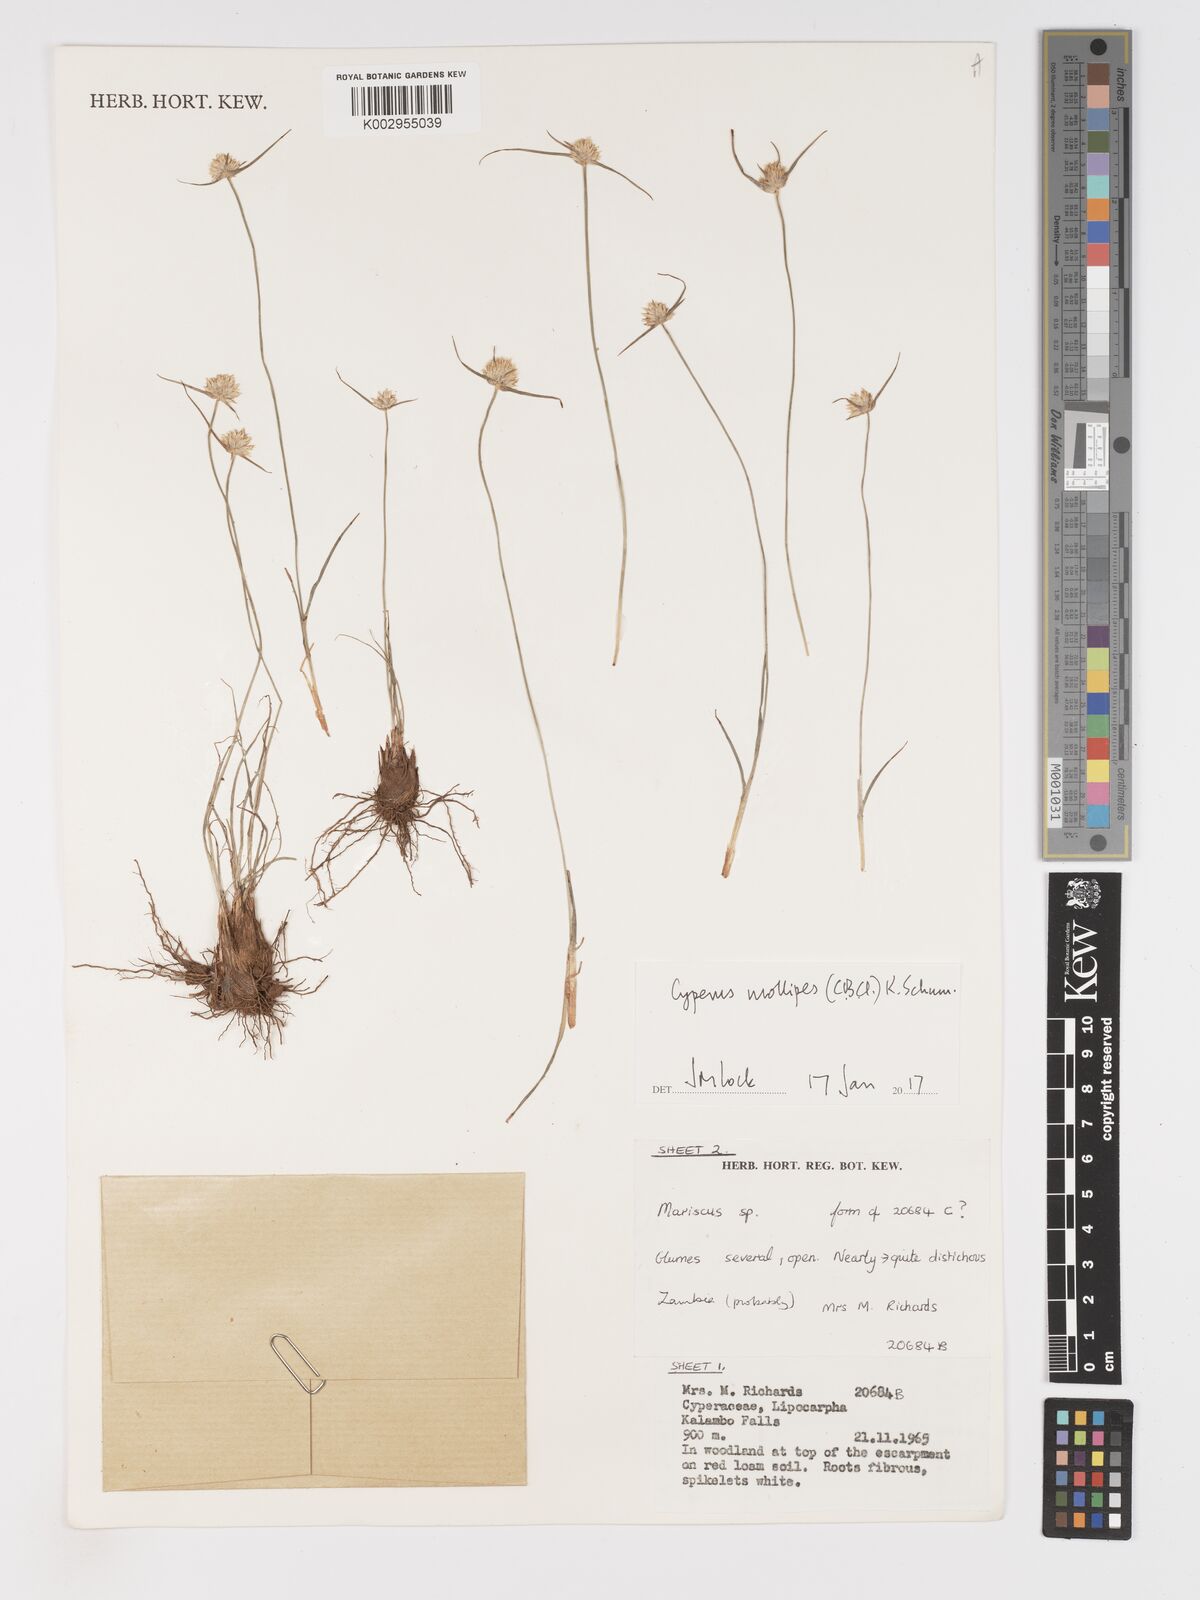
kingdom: Plantae
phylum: Tracheophyta
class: Liliopsida
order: Poales
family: Cyperaceae
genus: Cyperus
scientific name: Cyperus mollipes
